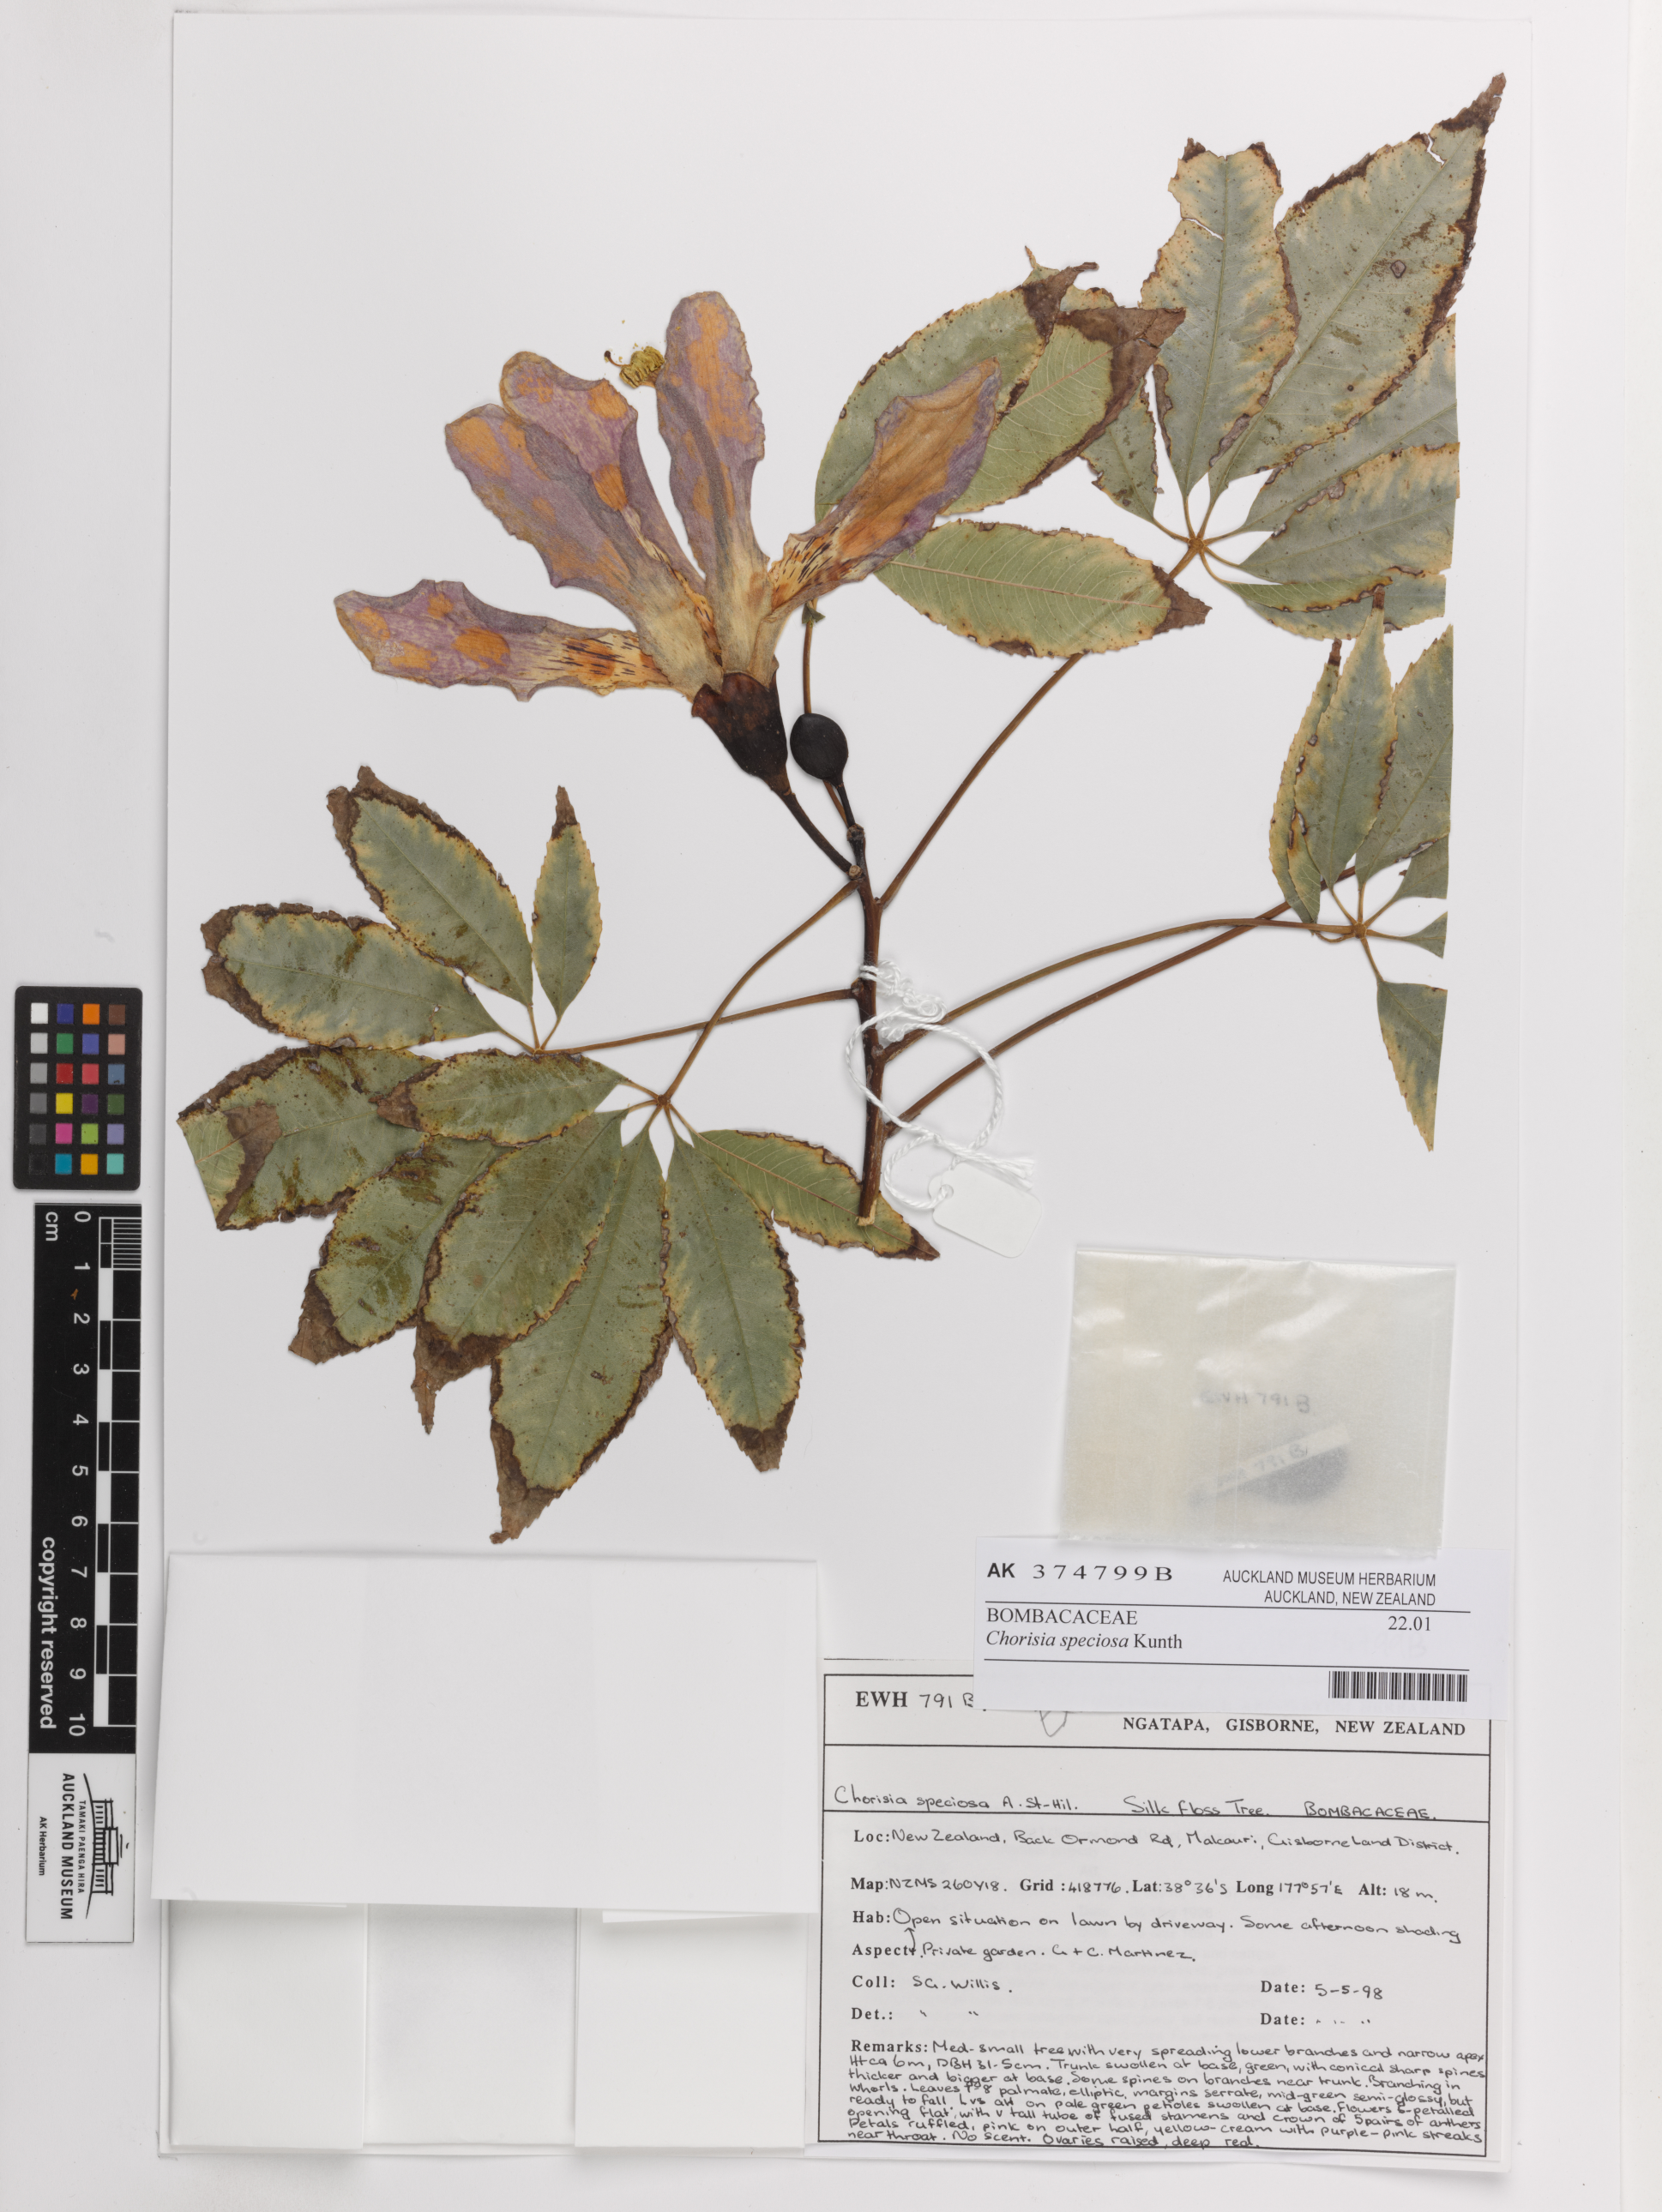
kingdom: Plantae
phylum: Tracheophyta
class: Magnoliopsida
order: Malvales
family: Malvaceae
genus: Ceiba
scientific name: Ceiba speciosa
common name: Silk-floss tree
